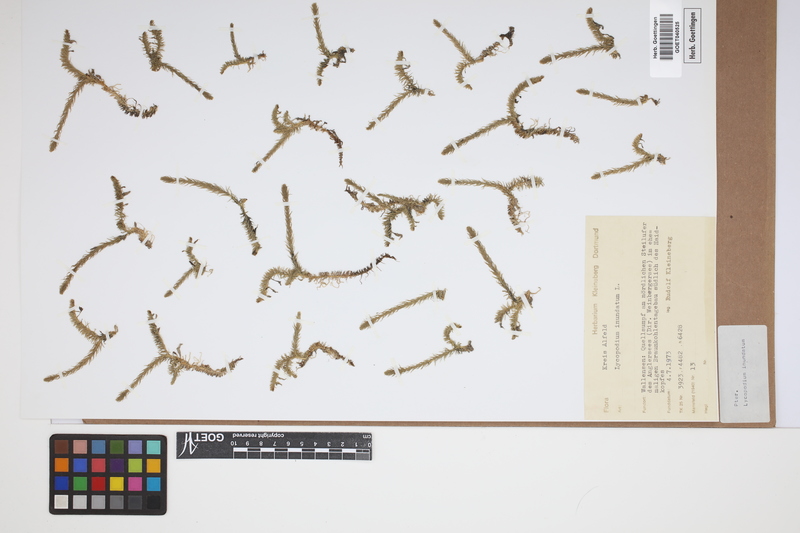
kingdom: Plantae
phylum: Tracheophyta
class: Lycopodiopsida
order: Lycopodiales
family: Lycopodiaceae
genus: Lycopodiella
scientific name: Lycopodiella inundata
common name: Marsh clubmoss
